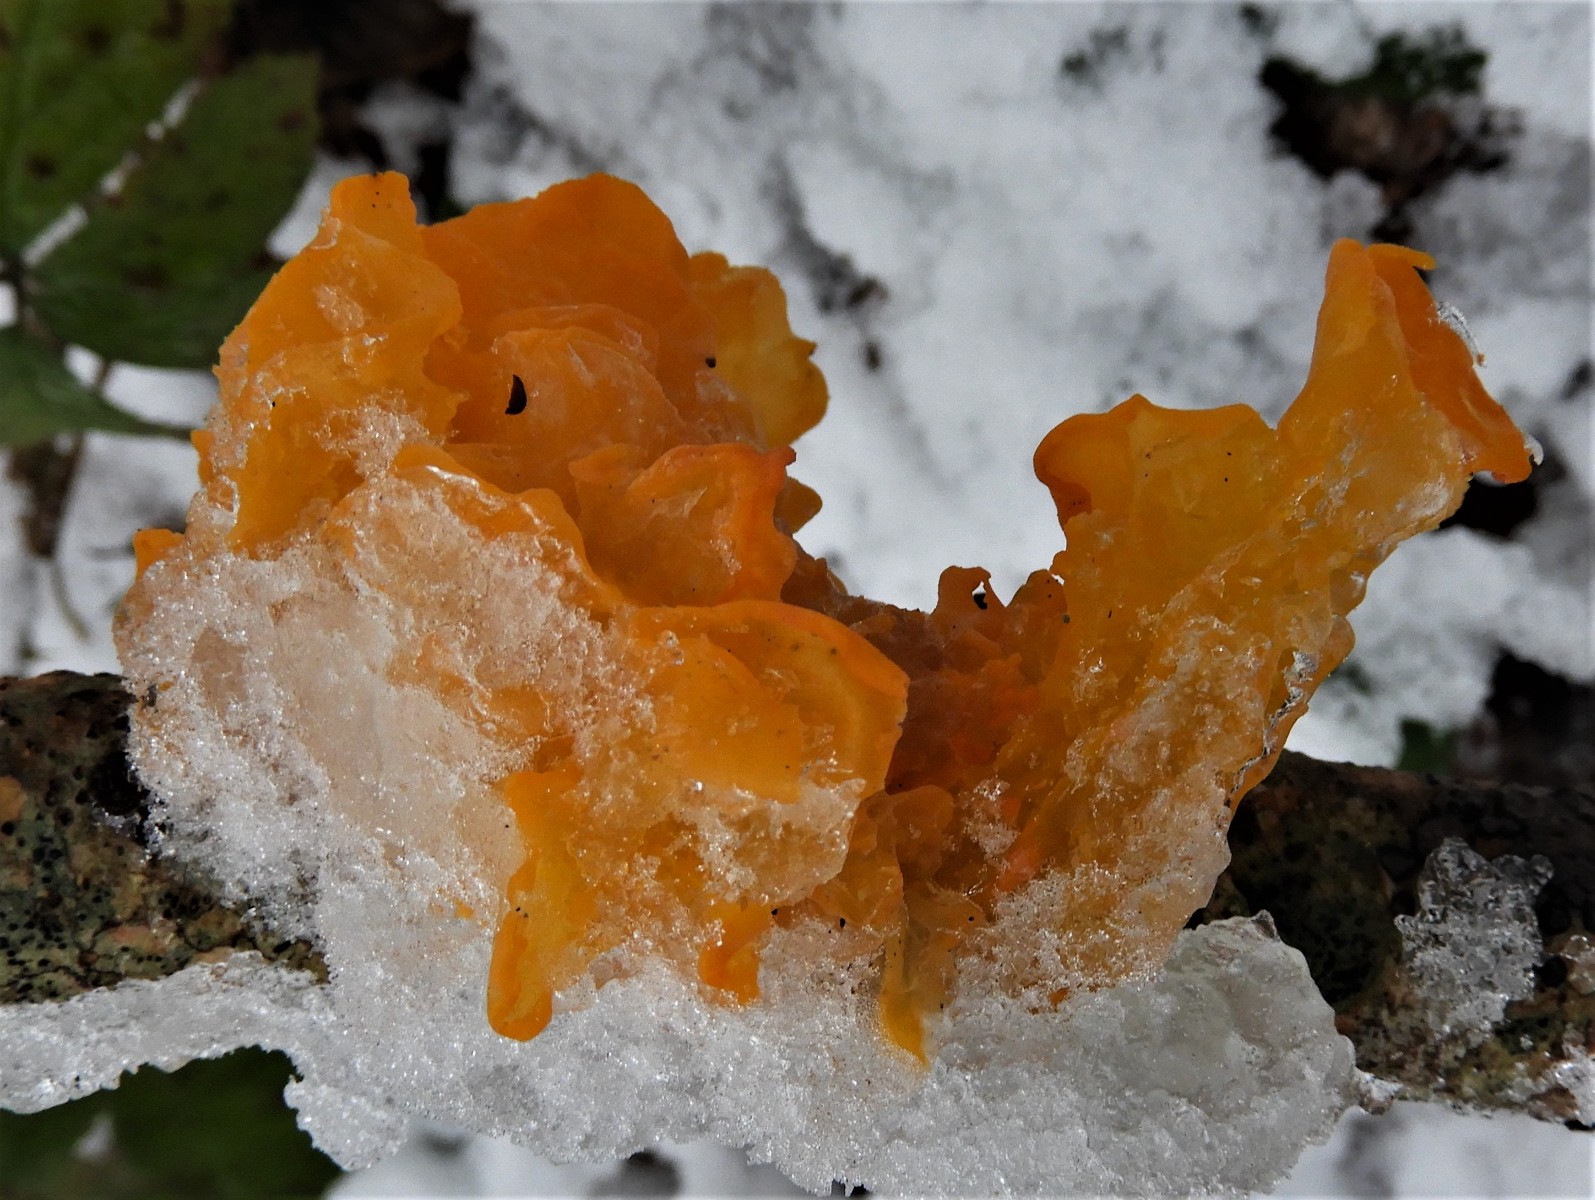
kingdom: Fungi
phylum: Basidiomycota
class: Tremellomycetes
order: Tremellales
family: Tremellaceae
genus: Tremella
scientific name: Tremella mesenterica
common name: gul bævresvamp
